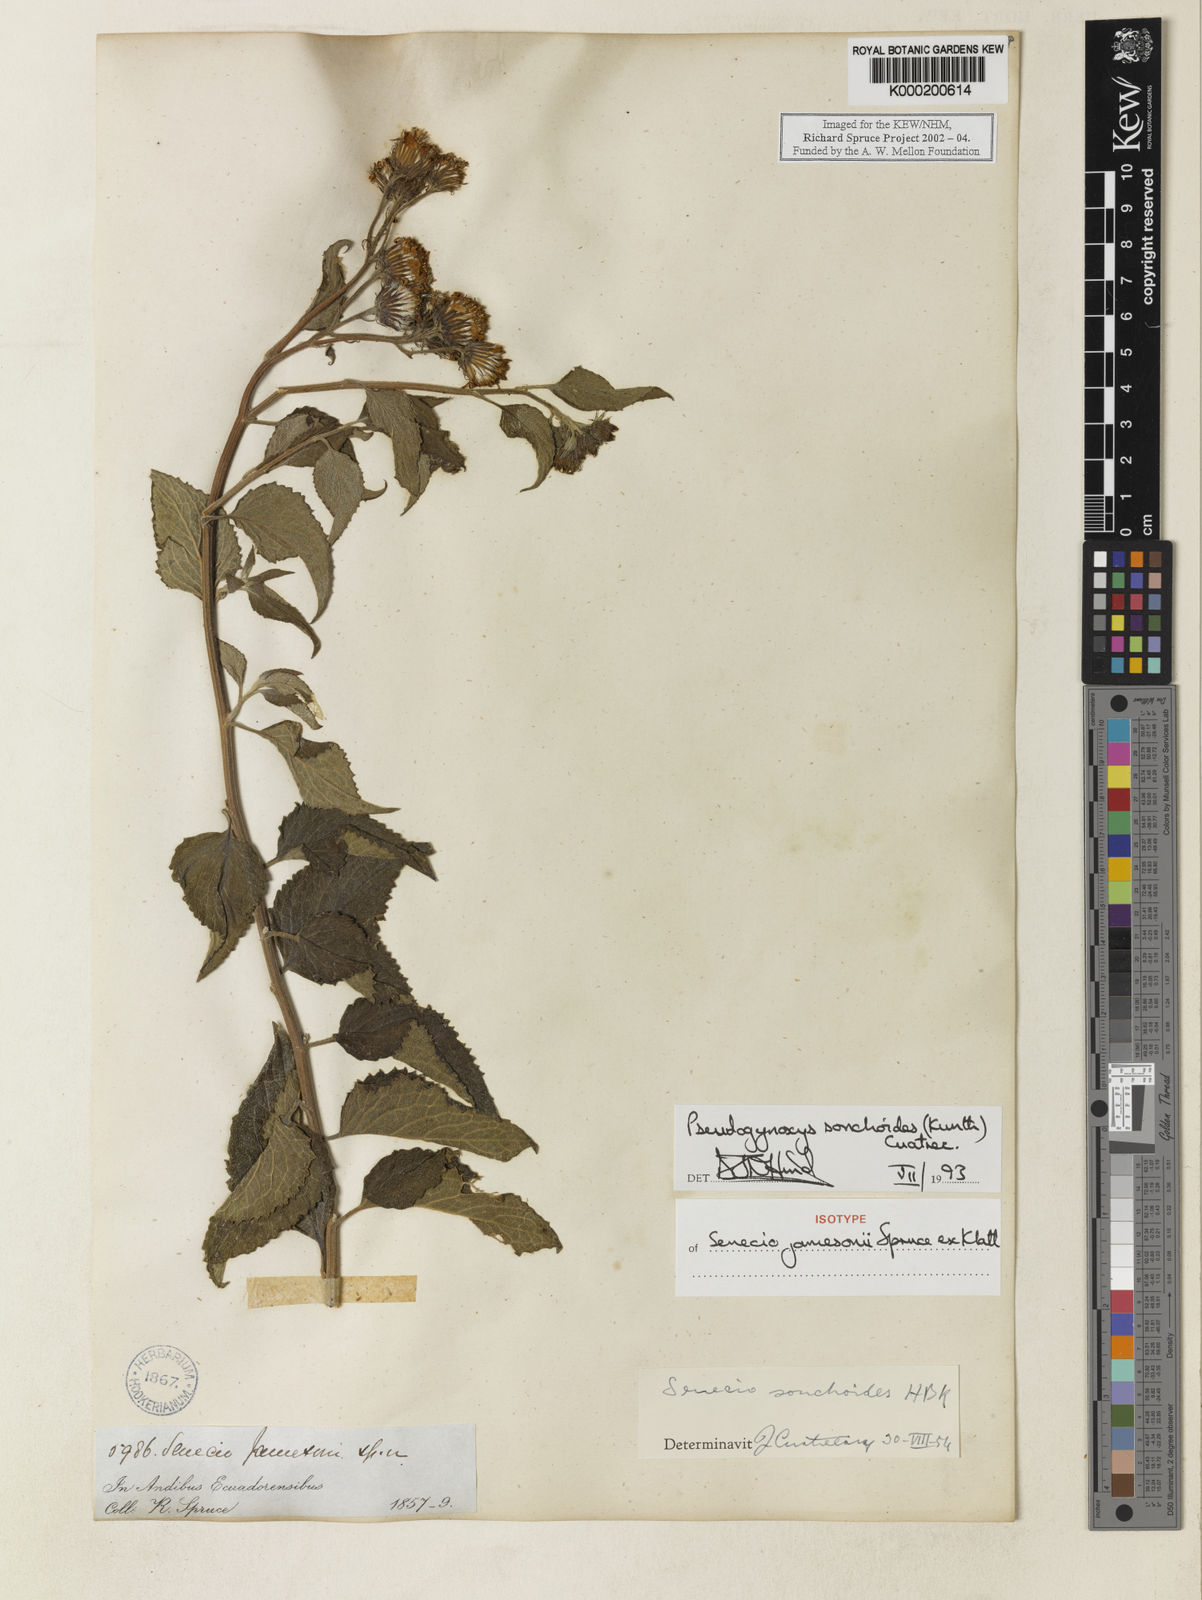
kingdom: Plantae
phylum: Tracheophyta
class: Magnoliopsida
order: Asterales
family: Asteraceae
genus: Pseudogynoxys
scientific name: Pseudogynoxys
